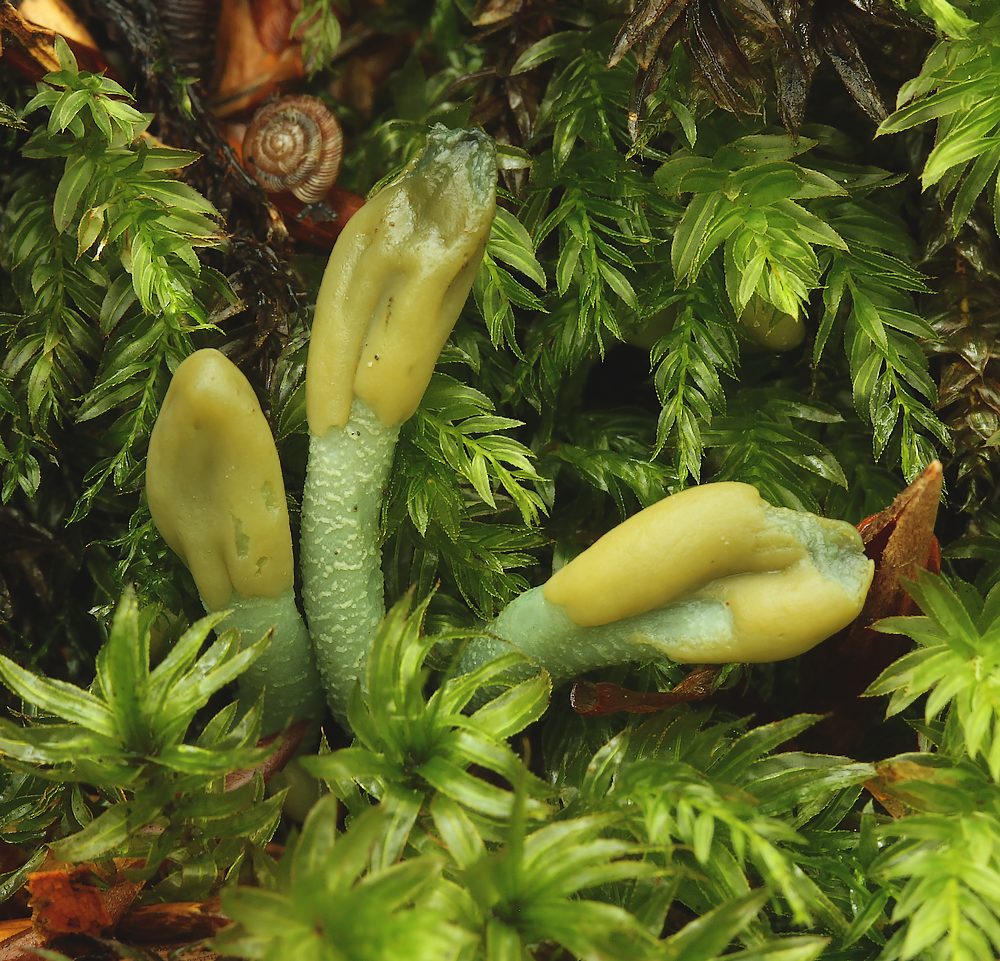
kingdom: Fungi
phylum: Ascomycota
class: Leotiomycetes
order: Leotiales
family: Leotiaceae
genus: Microglossum
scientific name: Microglossum griseoviride
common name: grågrøn farvetunge
